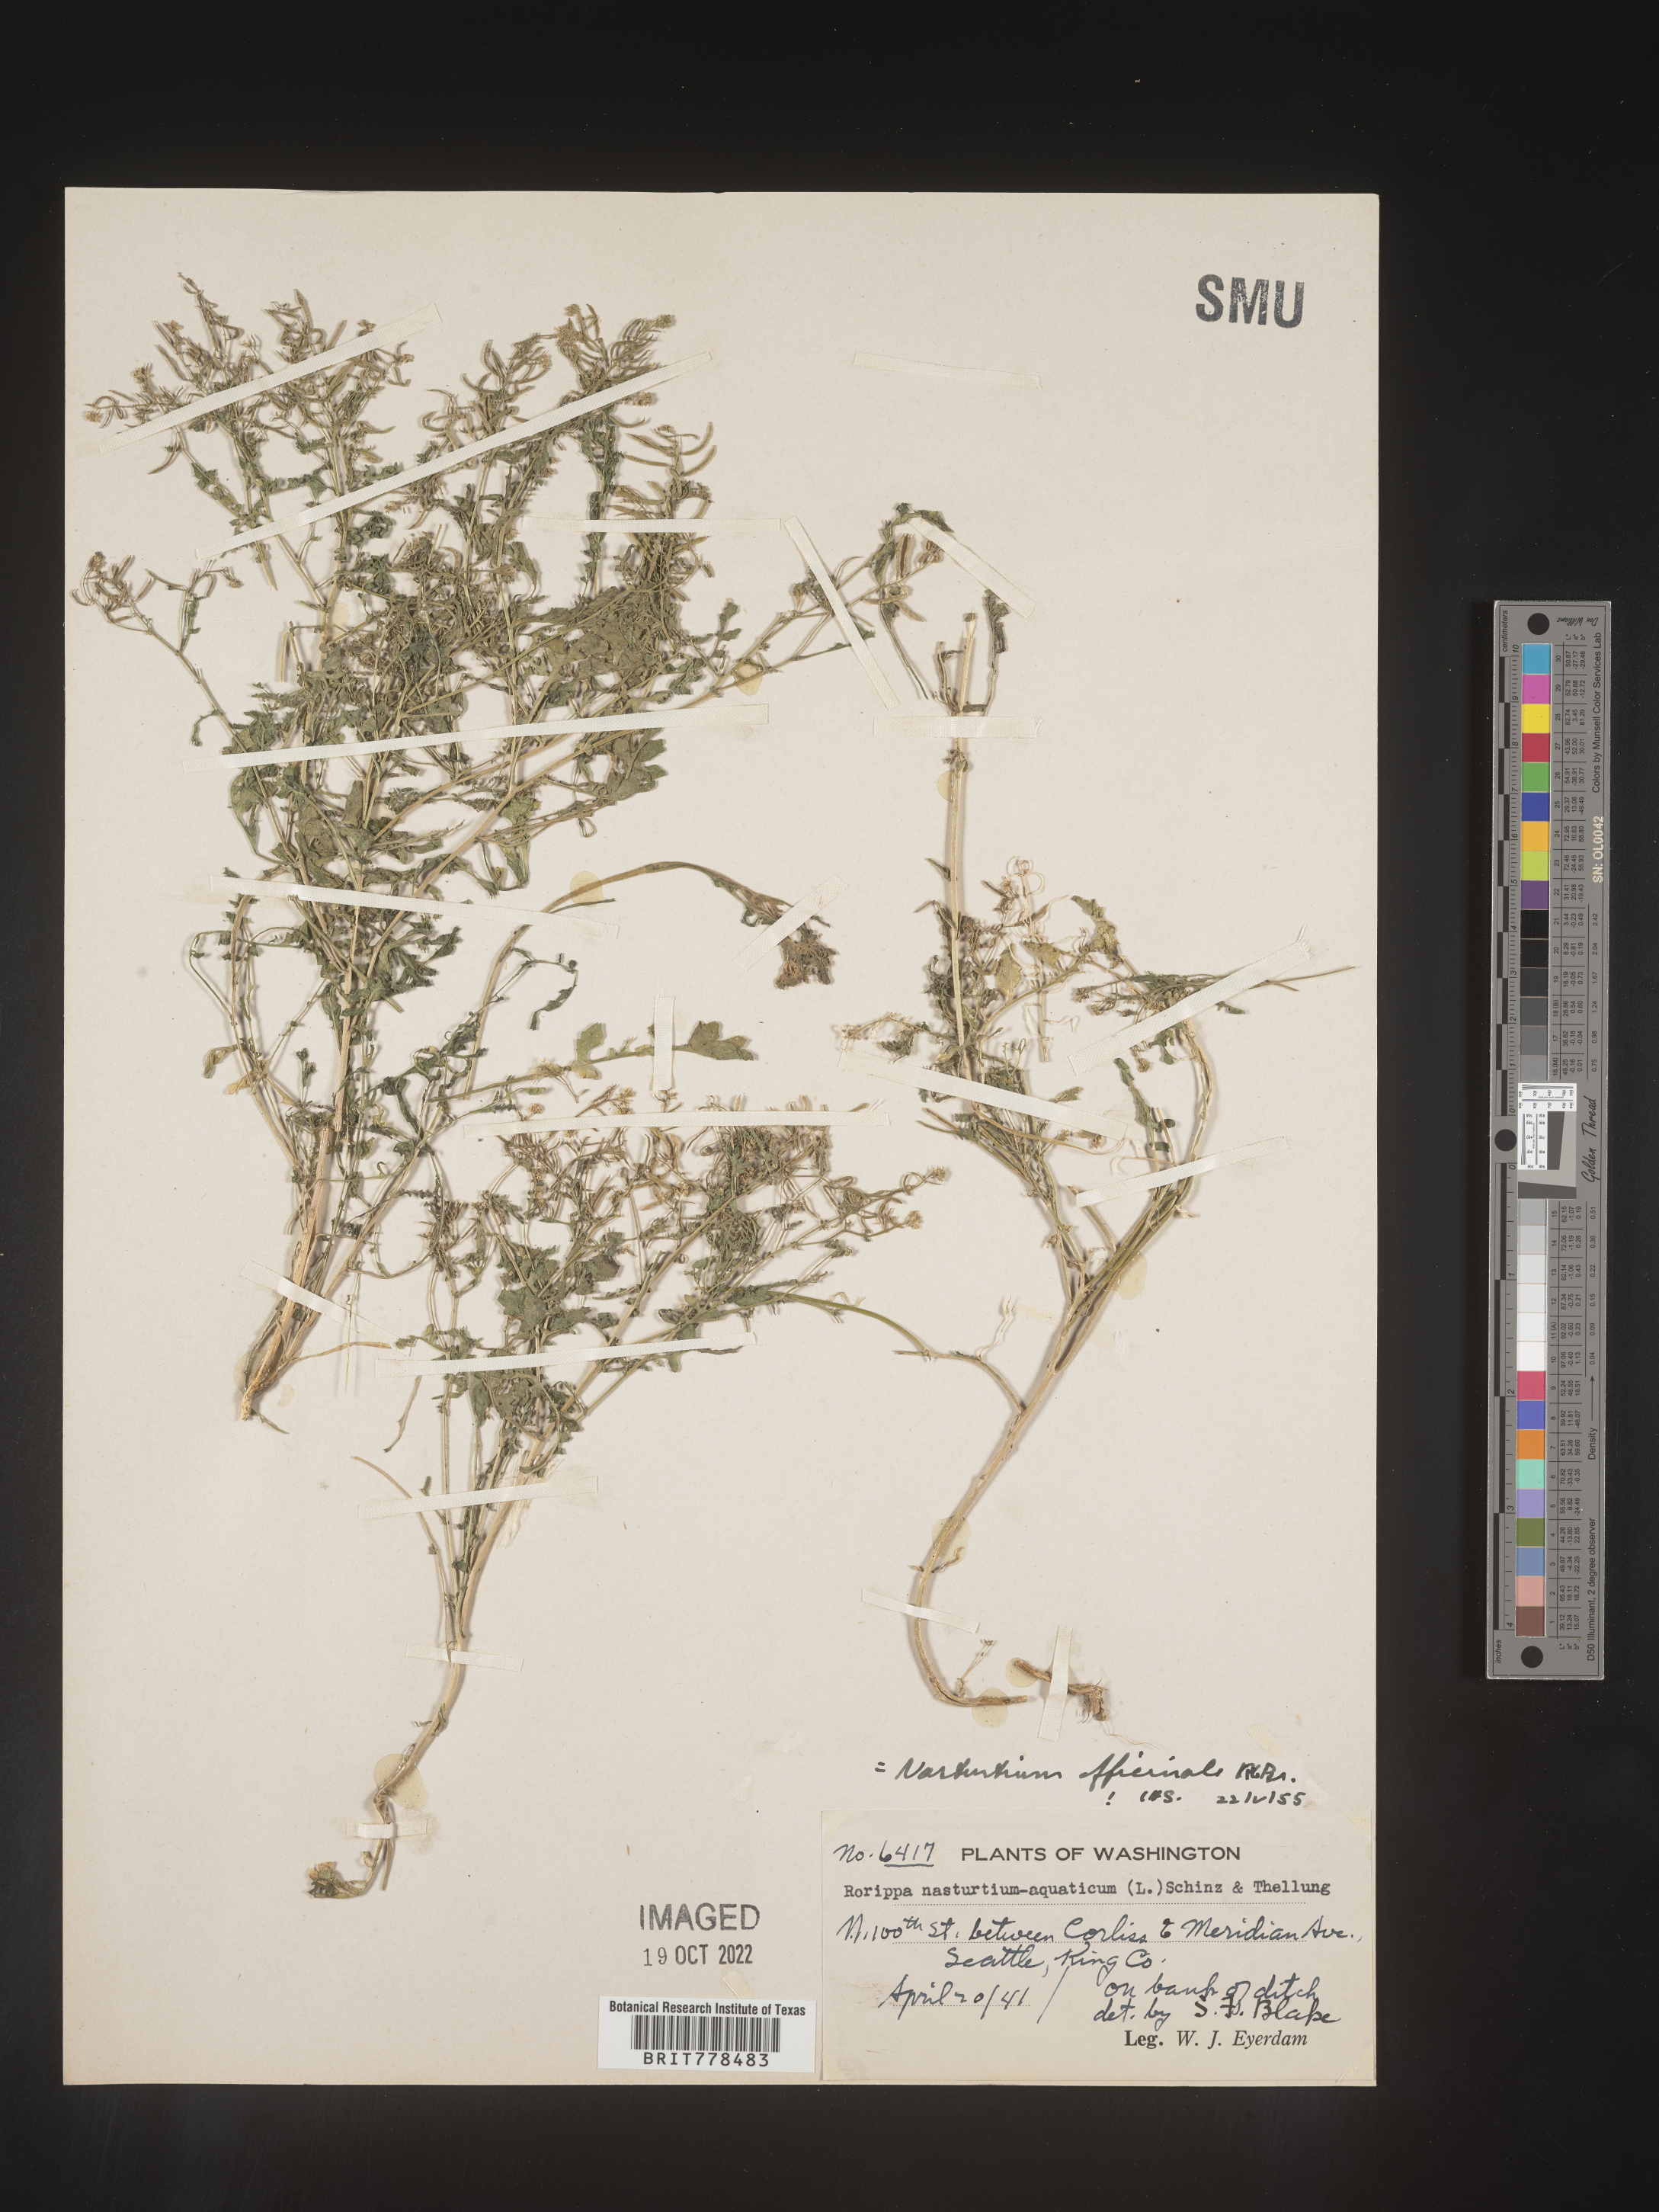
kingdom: Plantae
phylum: Tracheophyta
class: Magnoliopsida
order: Brassicales
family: Brassicaceae
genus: Nasturtium
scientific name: Nasturtium officinale
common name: Watercress
